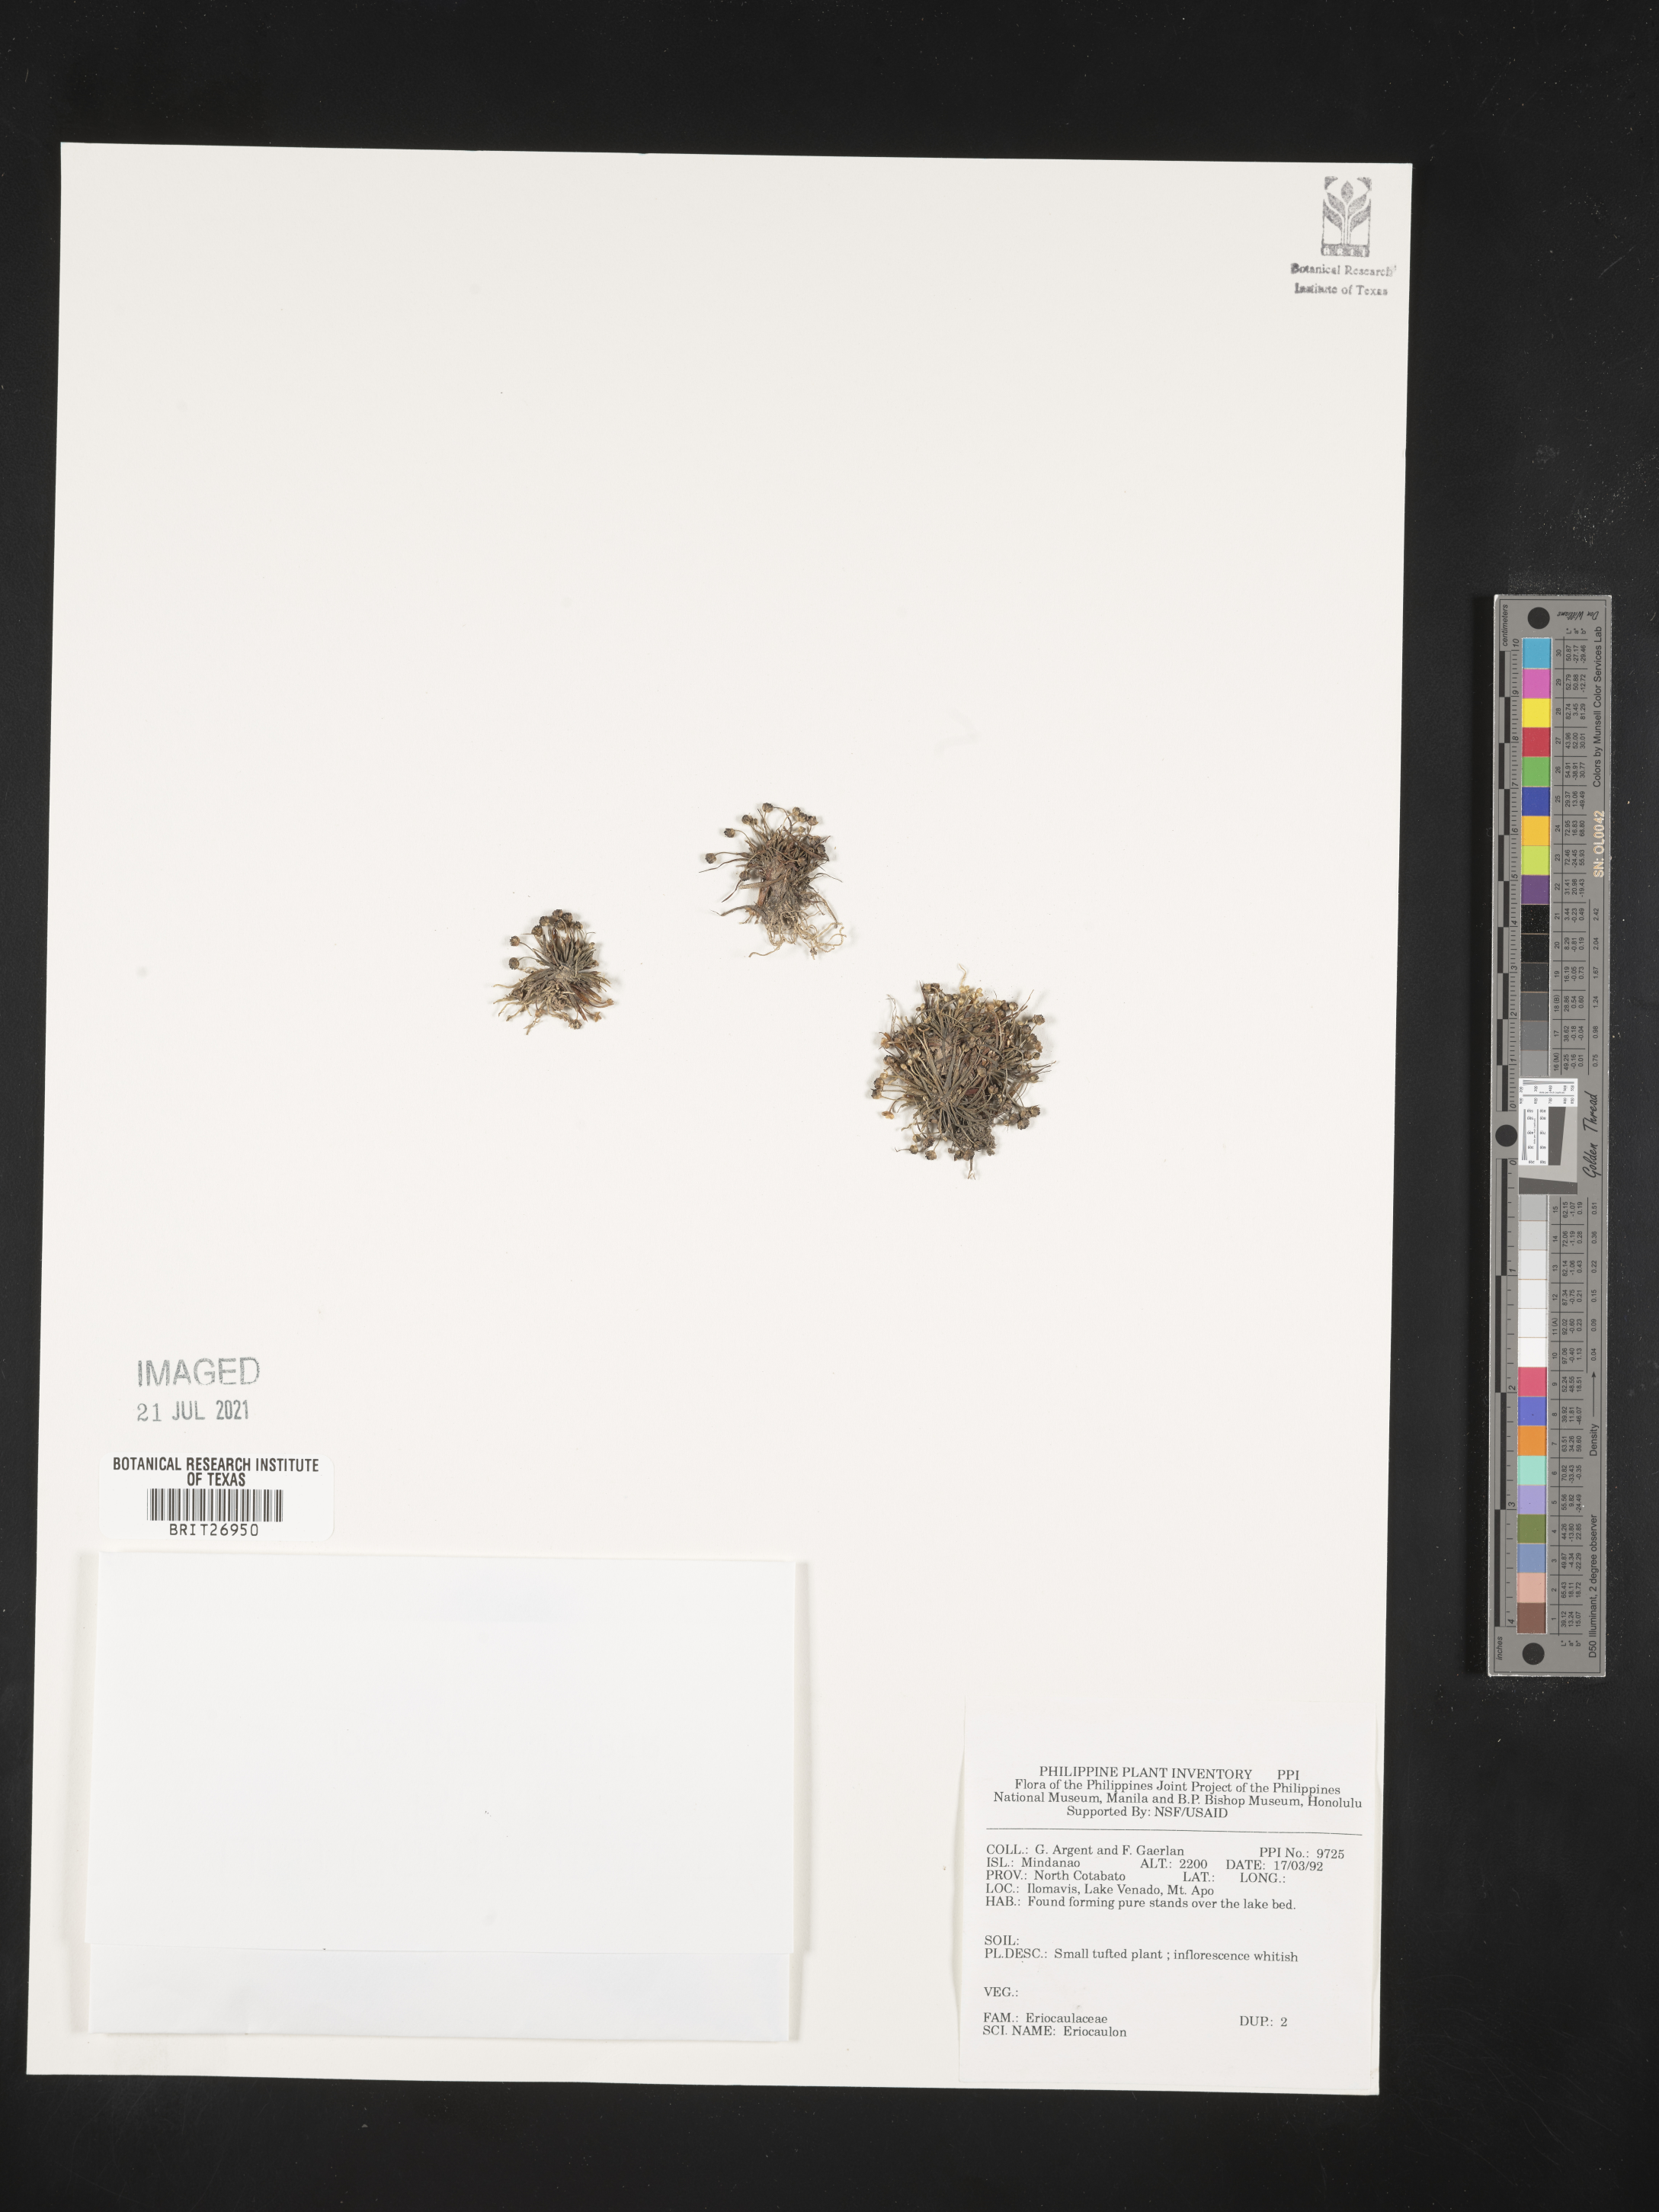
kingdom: Plantae
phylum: Tracheophyta
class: Liliopsida
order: Poales
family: Eriocaulaceae
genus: Eriocaulon
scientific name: Eriocaulon
